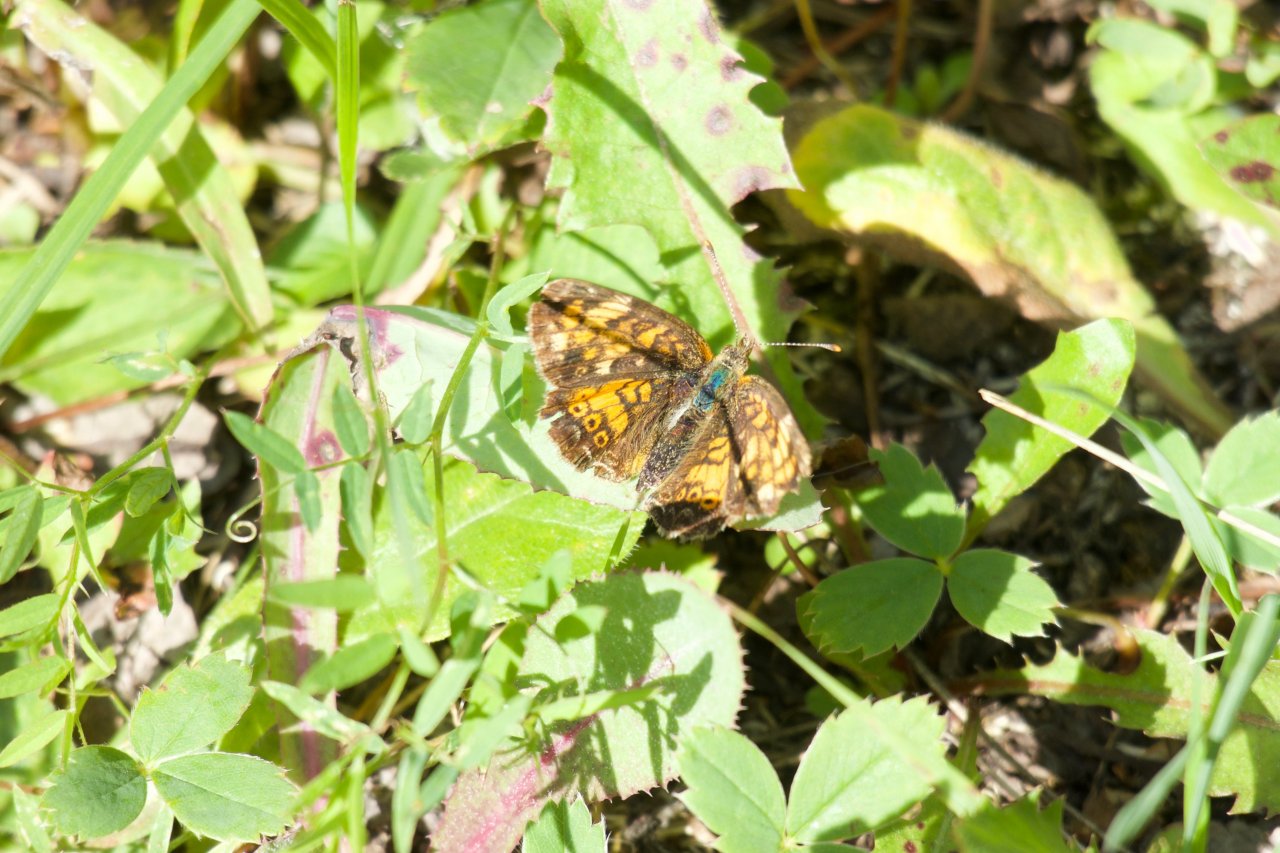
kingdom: Animalia
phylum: Arthropoda
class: Insecta
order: Lepidoptera
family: Nymphalidae
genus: Phyciodes
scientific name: Phyciodes tharos
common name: Northern Crescent
